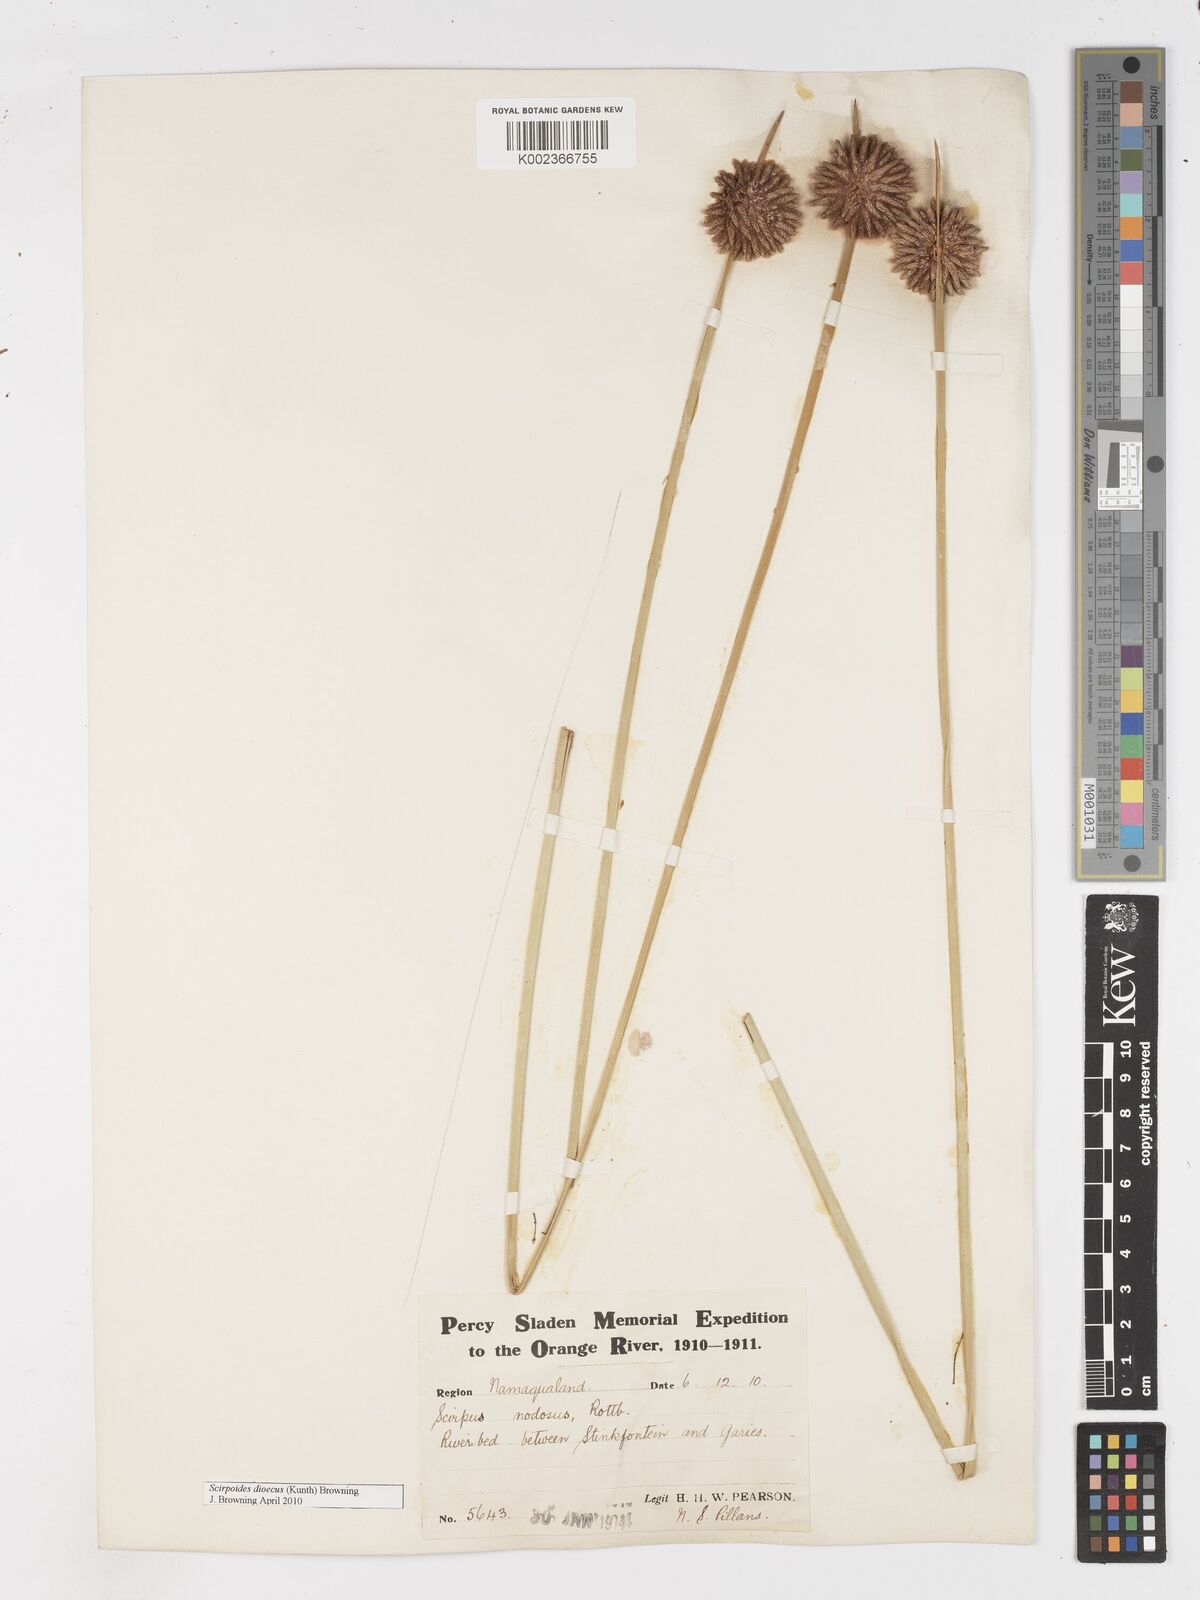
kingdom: Plantae
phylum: Tracheophyta
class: Liliopsida
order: Poales
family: Cyperaceae
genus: Afroscirpoides
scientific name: Afroscirpoides dioeca
